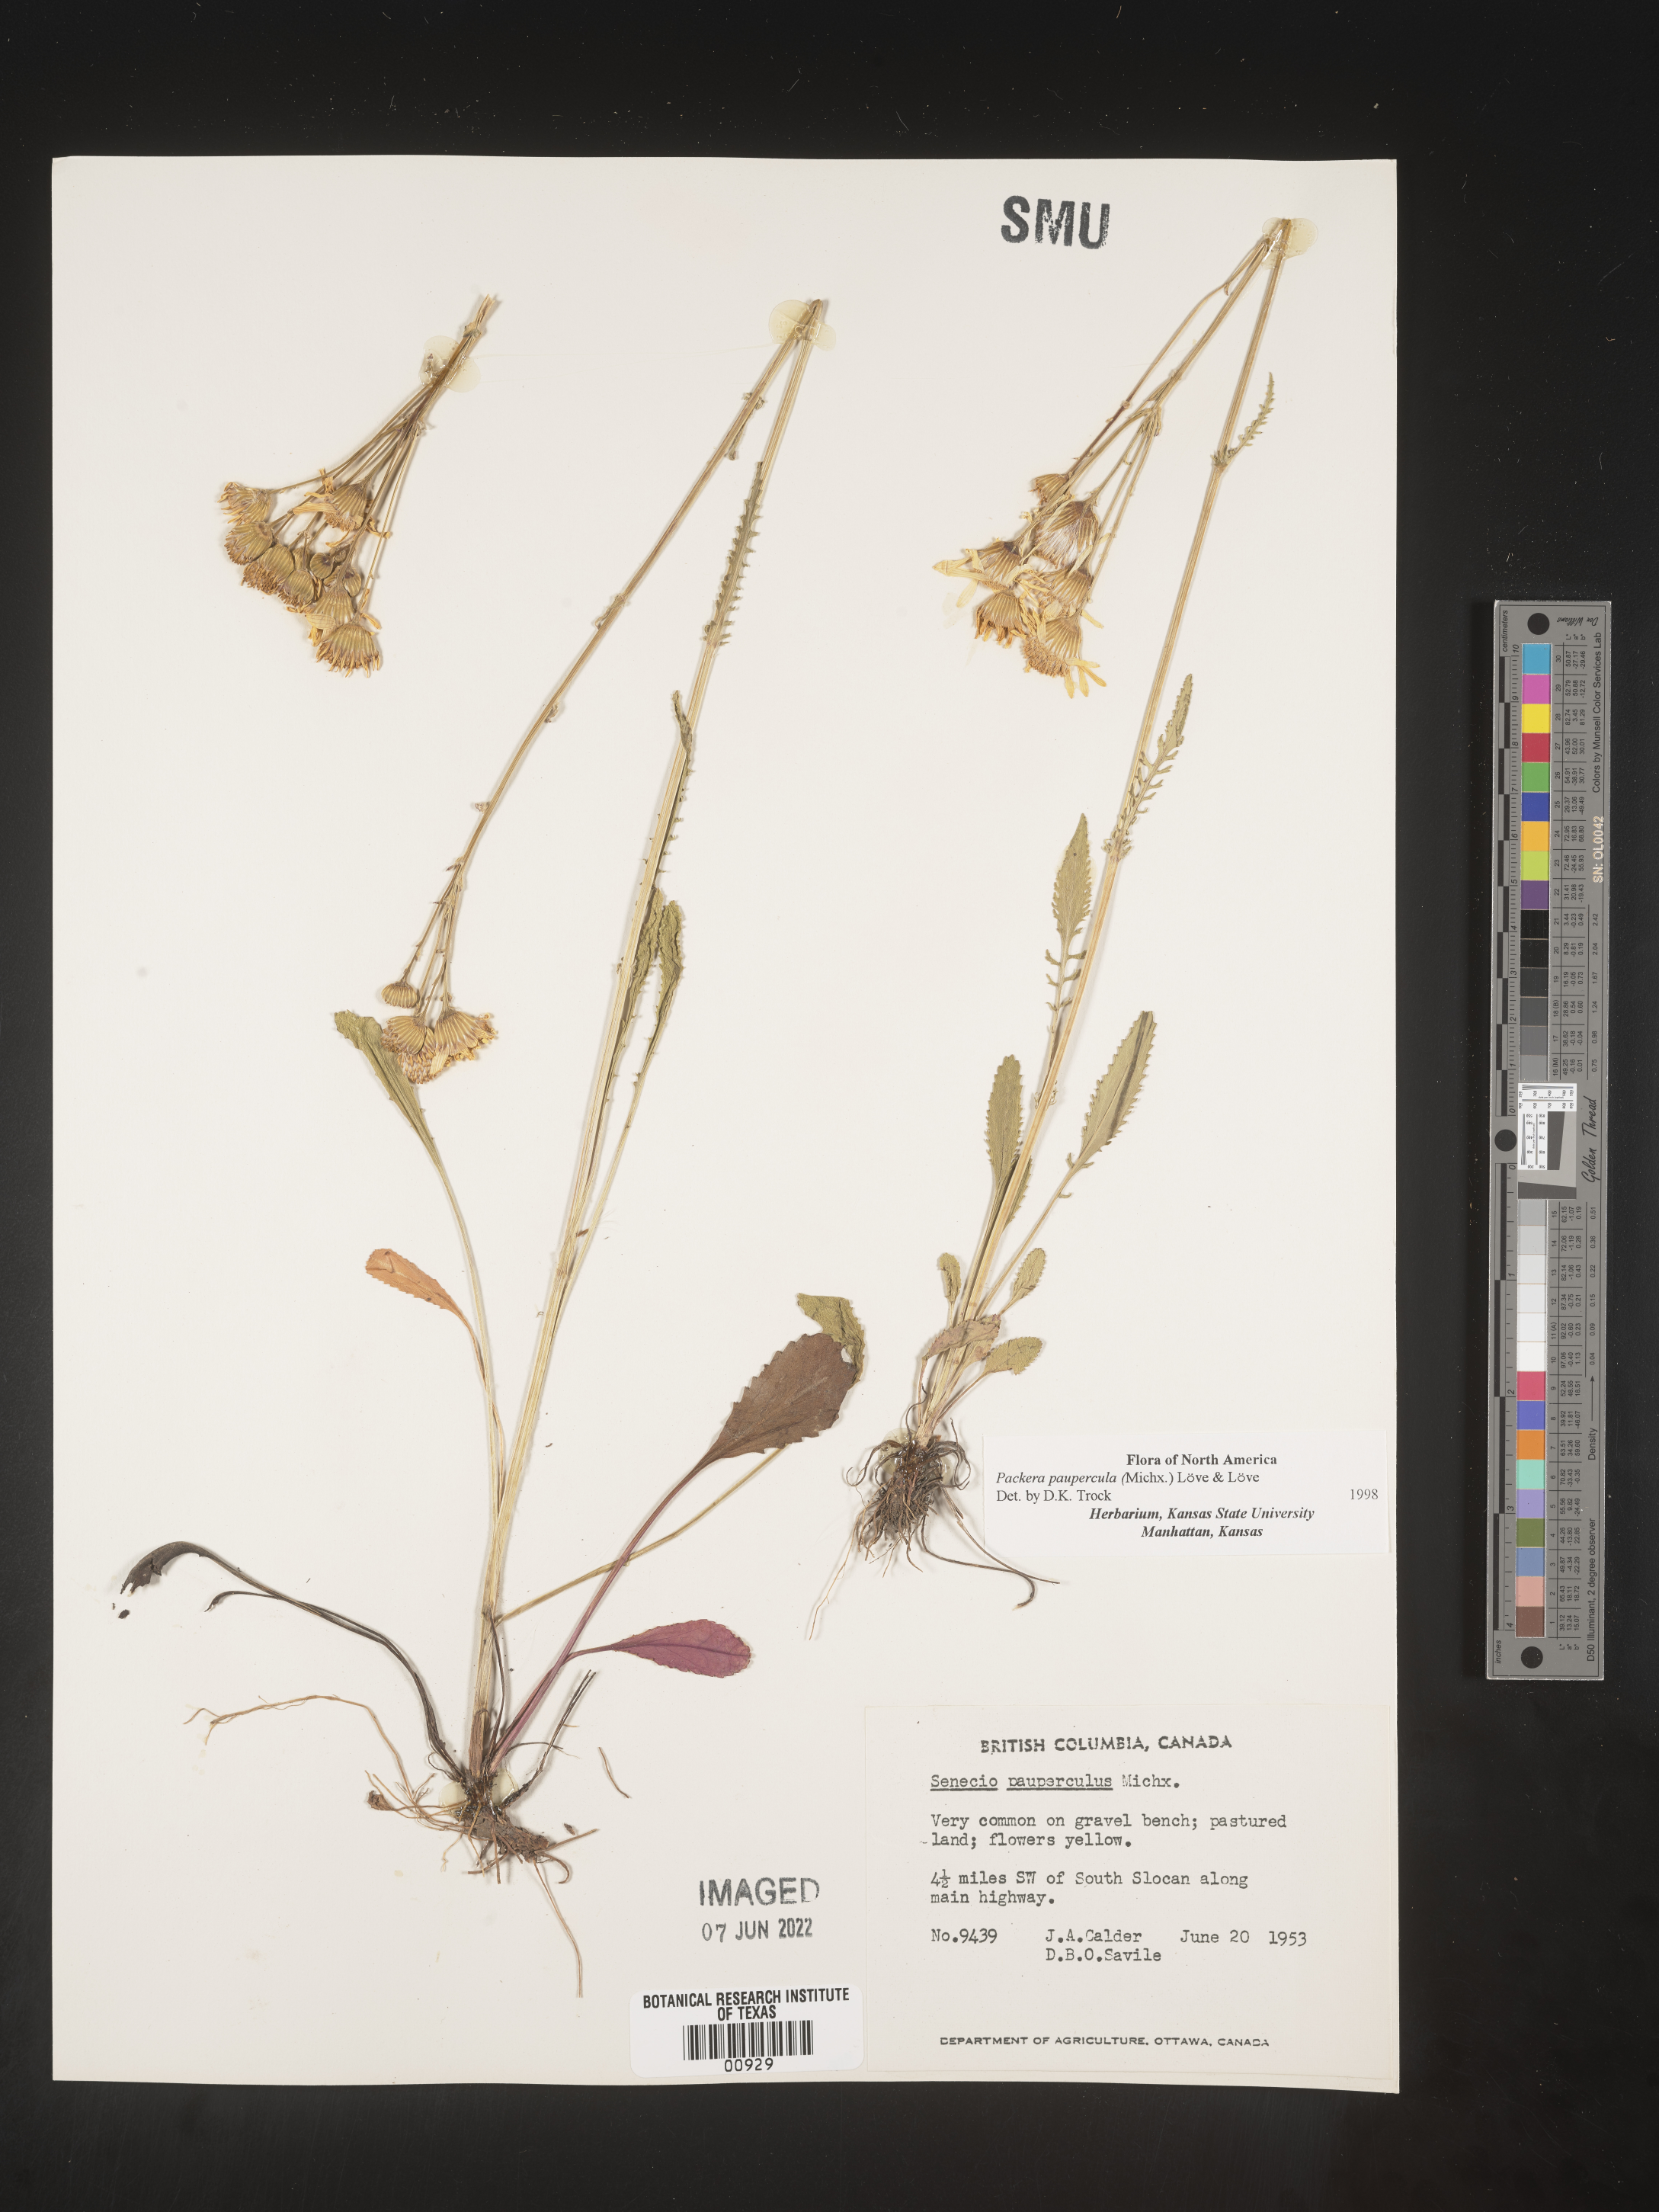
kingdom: Plantae
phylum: Tracheophyta
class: Magnoliopsida
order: Asterales
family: Asteraceae
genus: Packera
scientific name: Packera paupercula
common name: Balsam groundsel
